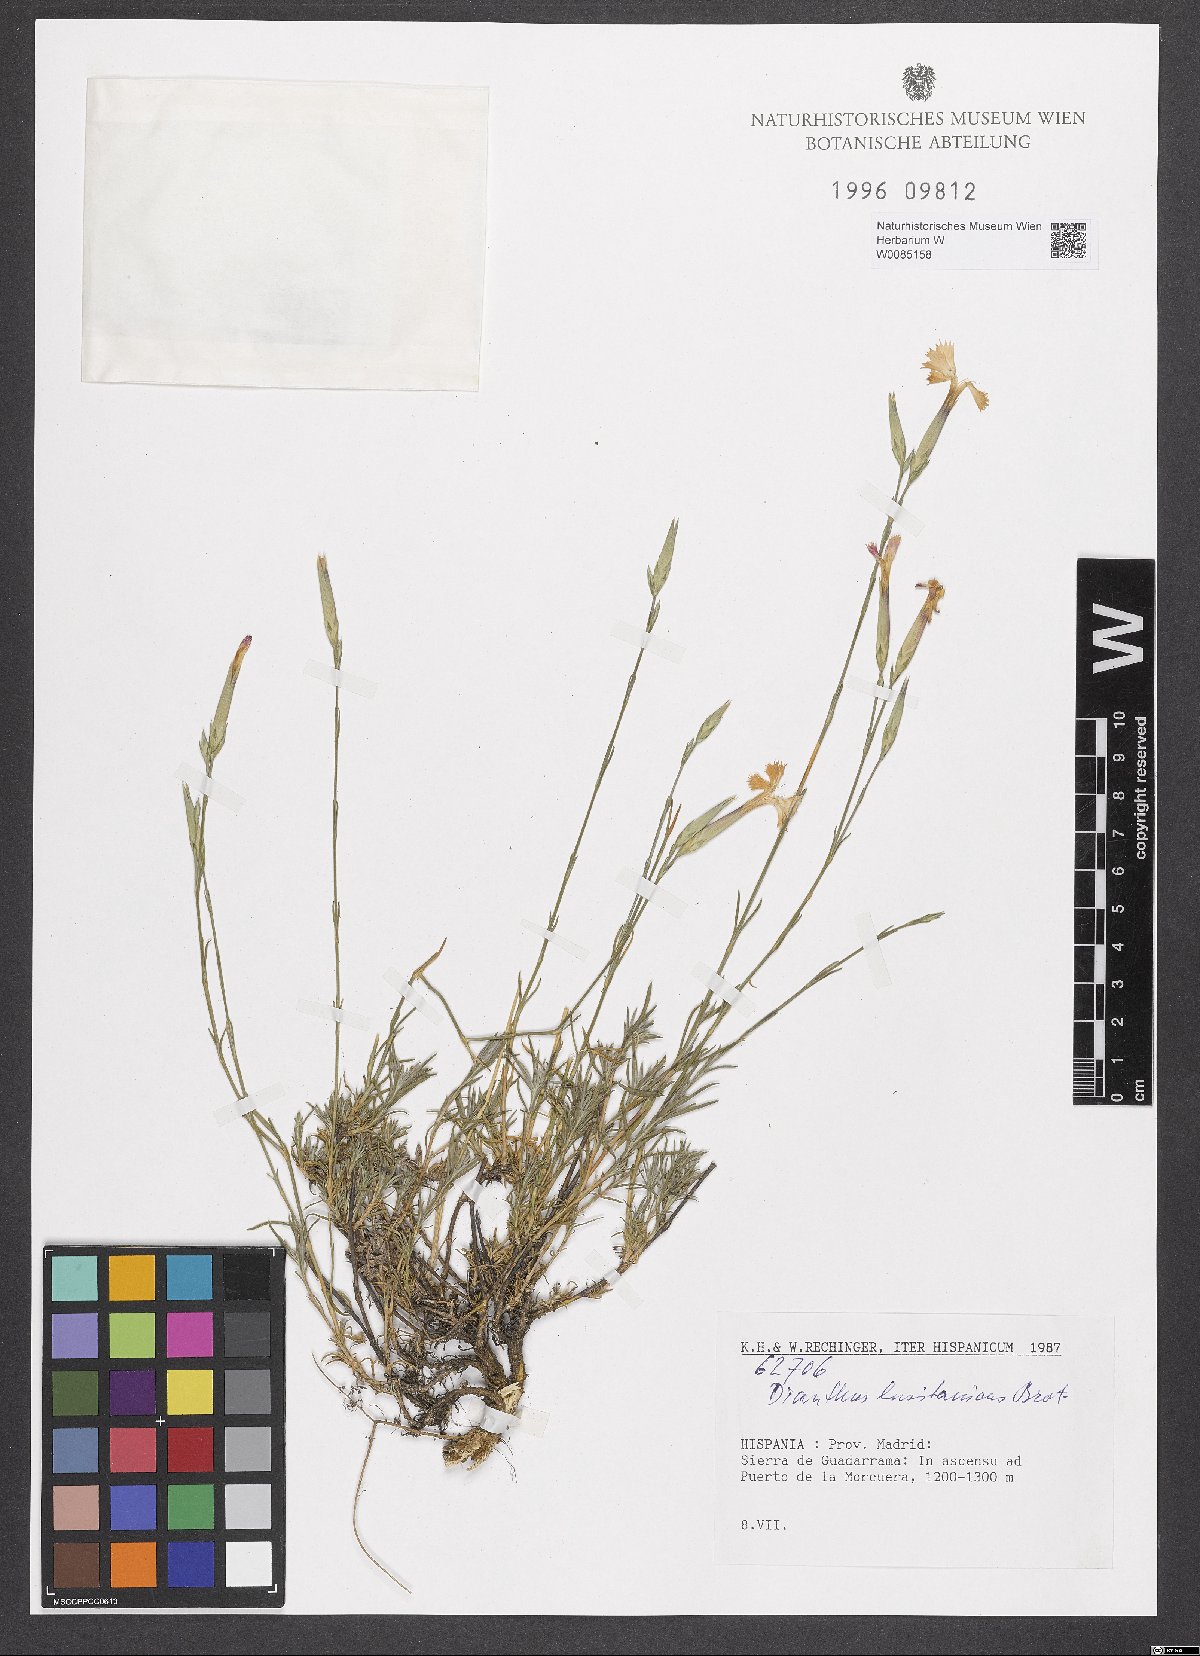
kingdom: Plantae
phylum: Tracheophyta
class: Magnoliopsida
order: Caryophyllales
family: Caryophyllaceae
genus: Dianthus
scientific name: Dianthus lusitanus
